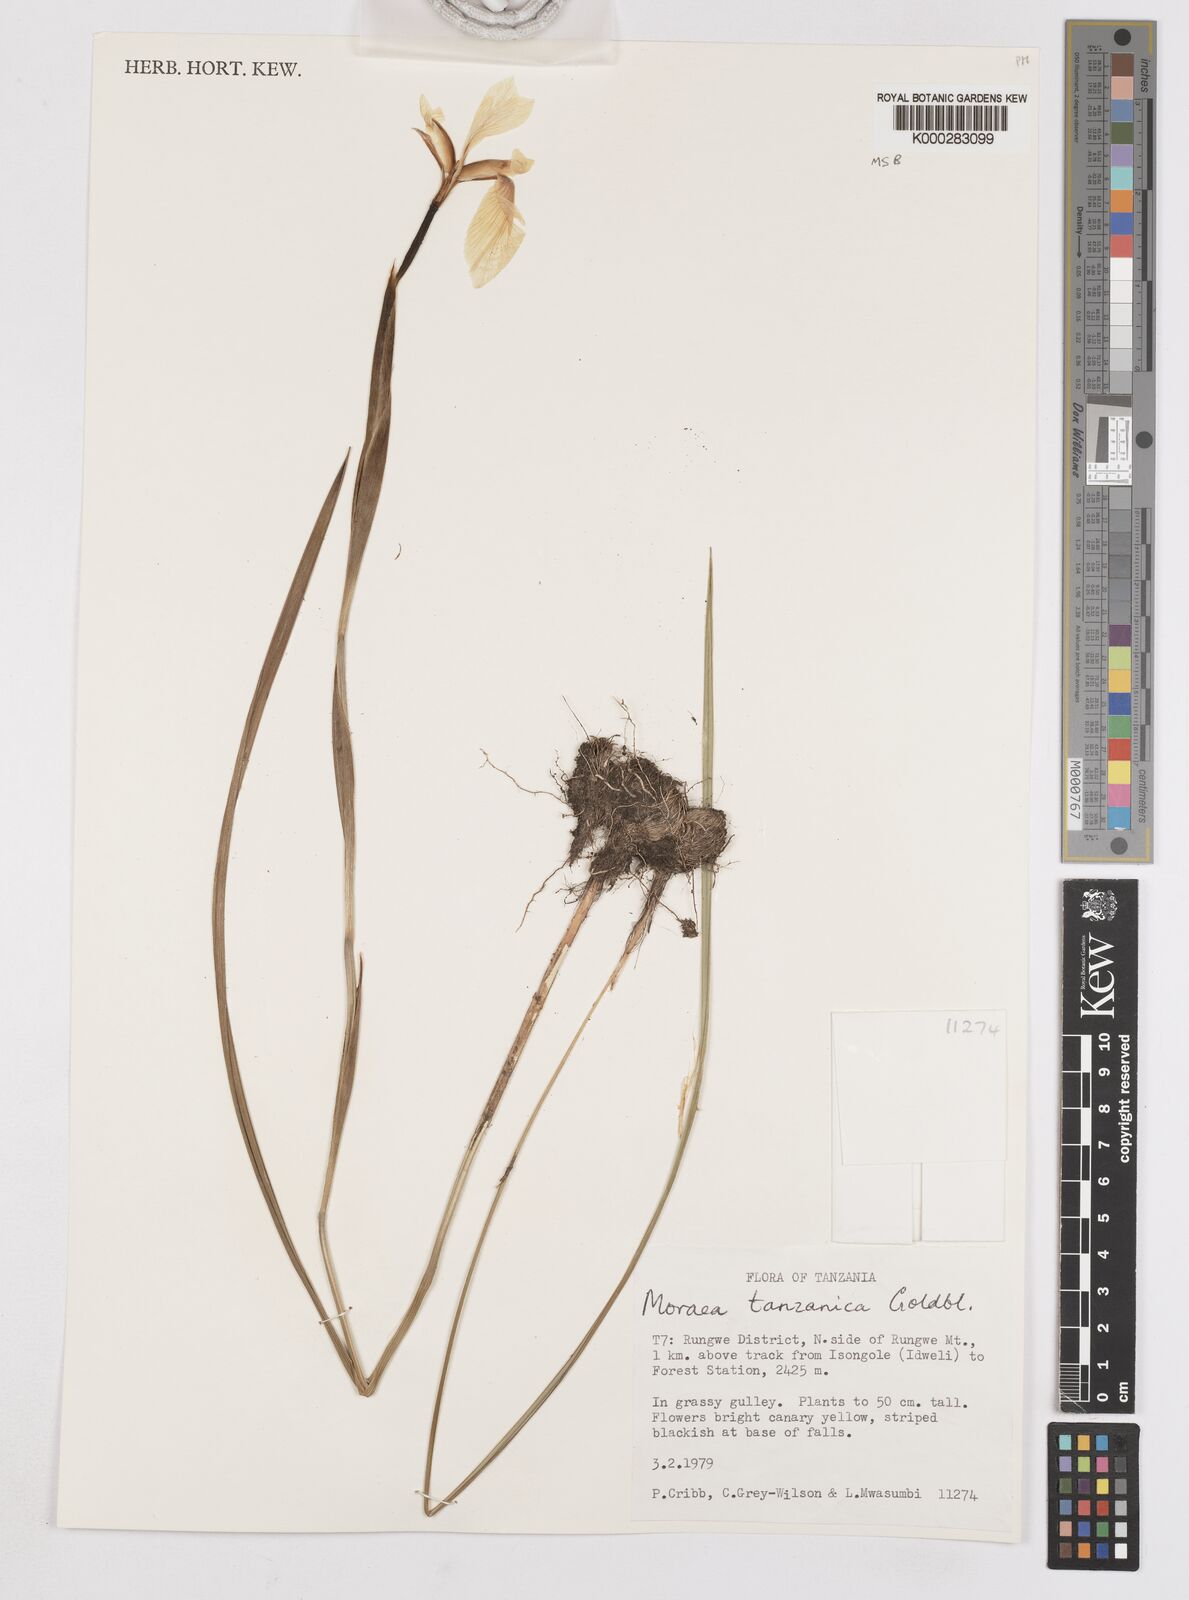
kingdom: Plantae
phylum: Tracheophyta
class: Liliopsida
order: Asparagales
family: Iridaceae
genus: Moraea
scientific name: Moraea tanzanica
